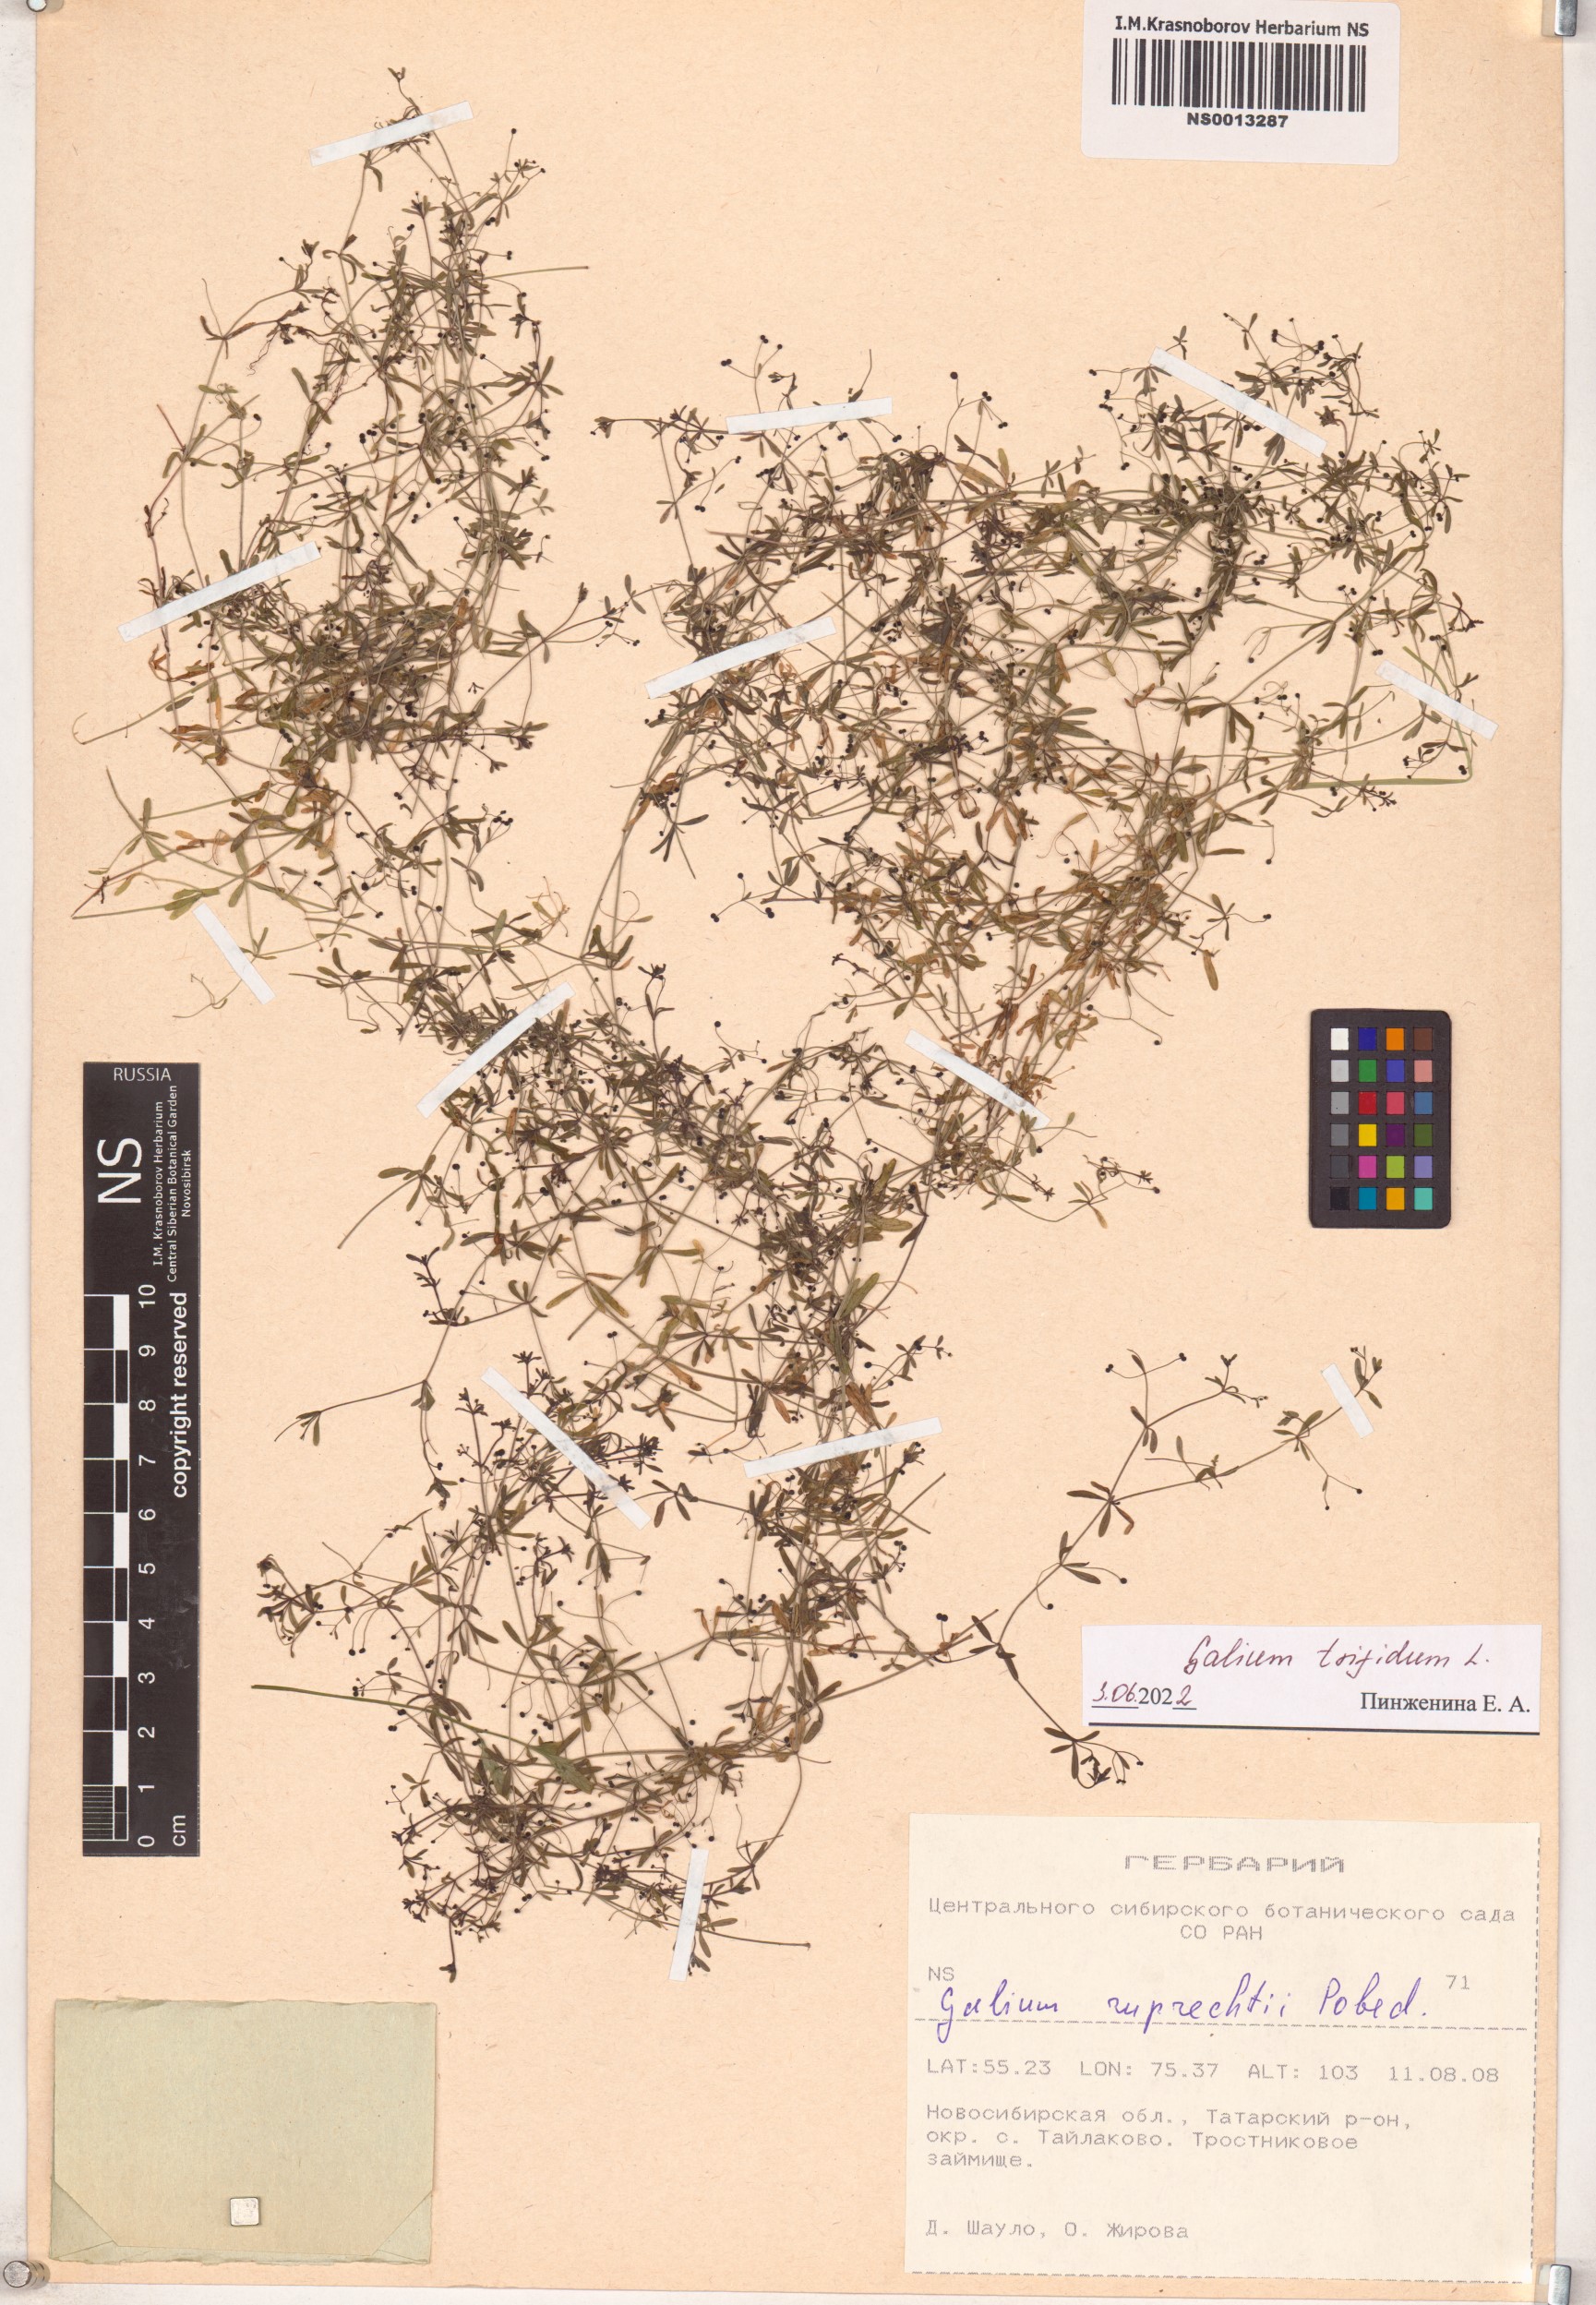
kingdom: Plantae
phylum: Tracheophyta
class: Magnoliopsida
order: Gentianales
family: Rubiaceae
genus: Galium
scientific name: Galium trifidum
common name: Small bedstraw
